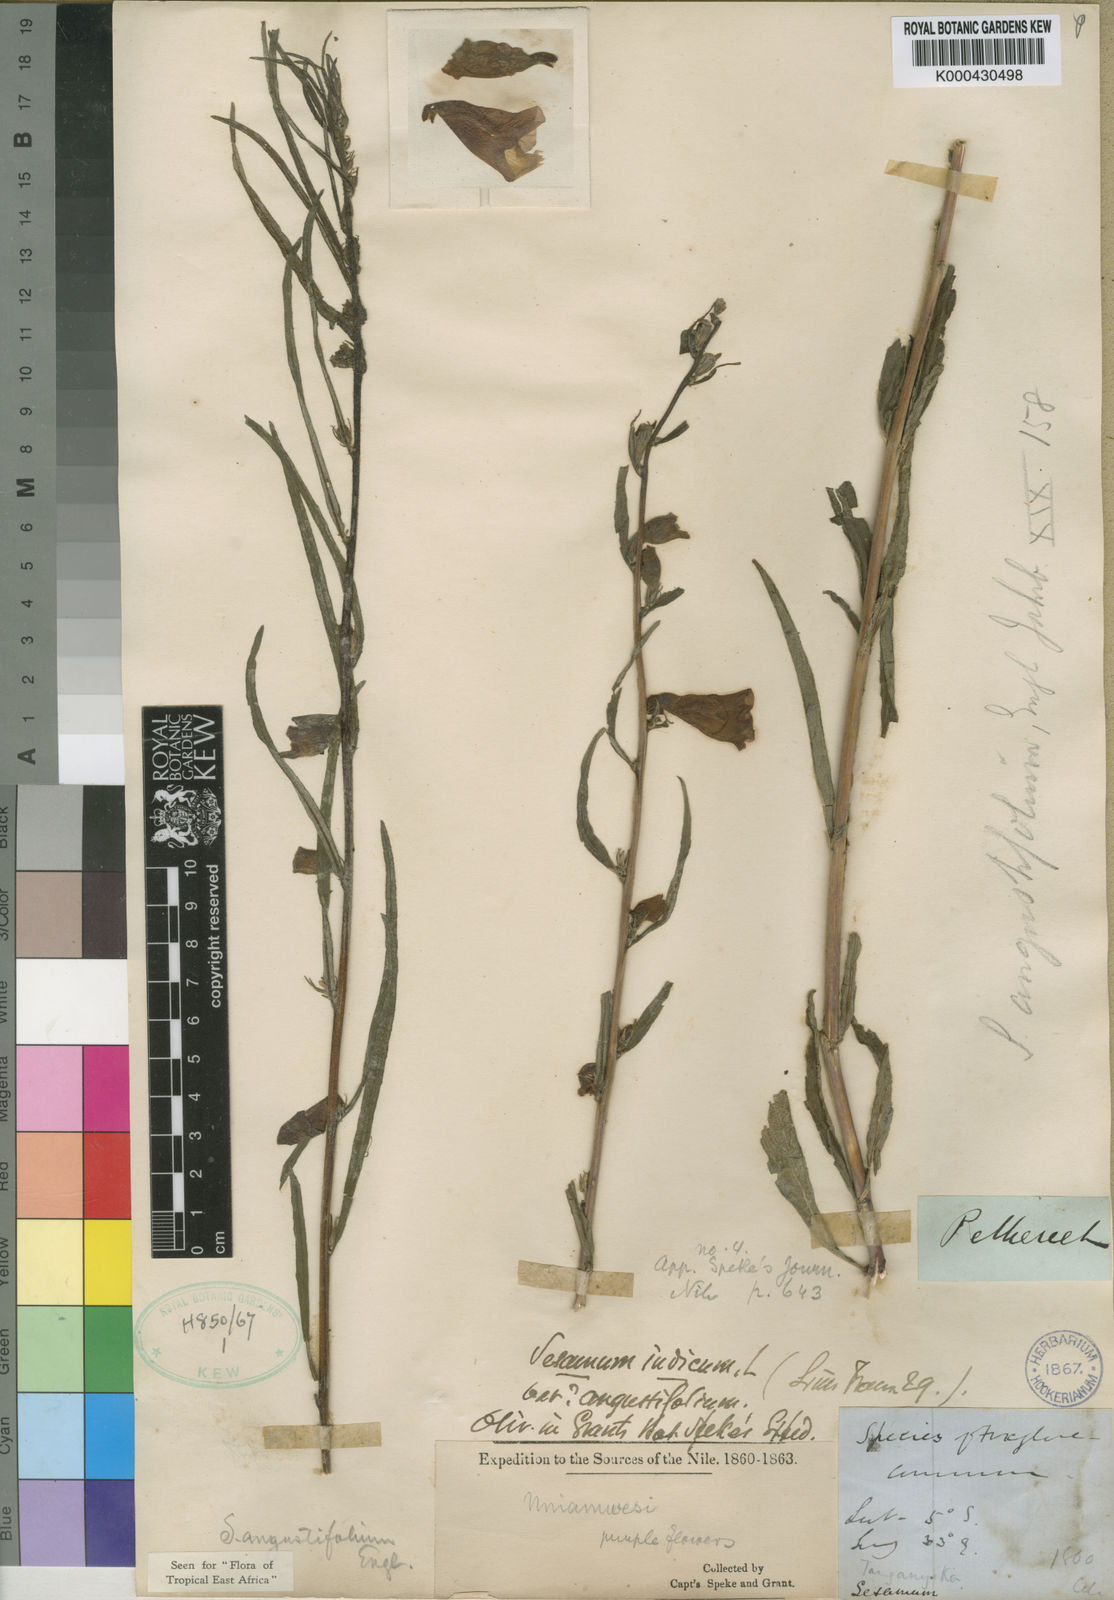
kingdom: Plantae
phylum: Tracheophyta
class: Magnoliopsida
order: Lamiales
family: Pedaliaceae
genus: Sesamum
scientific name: Sesamum angustifolium
